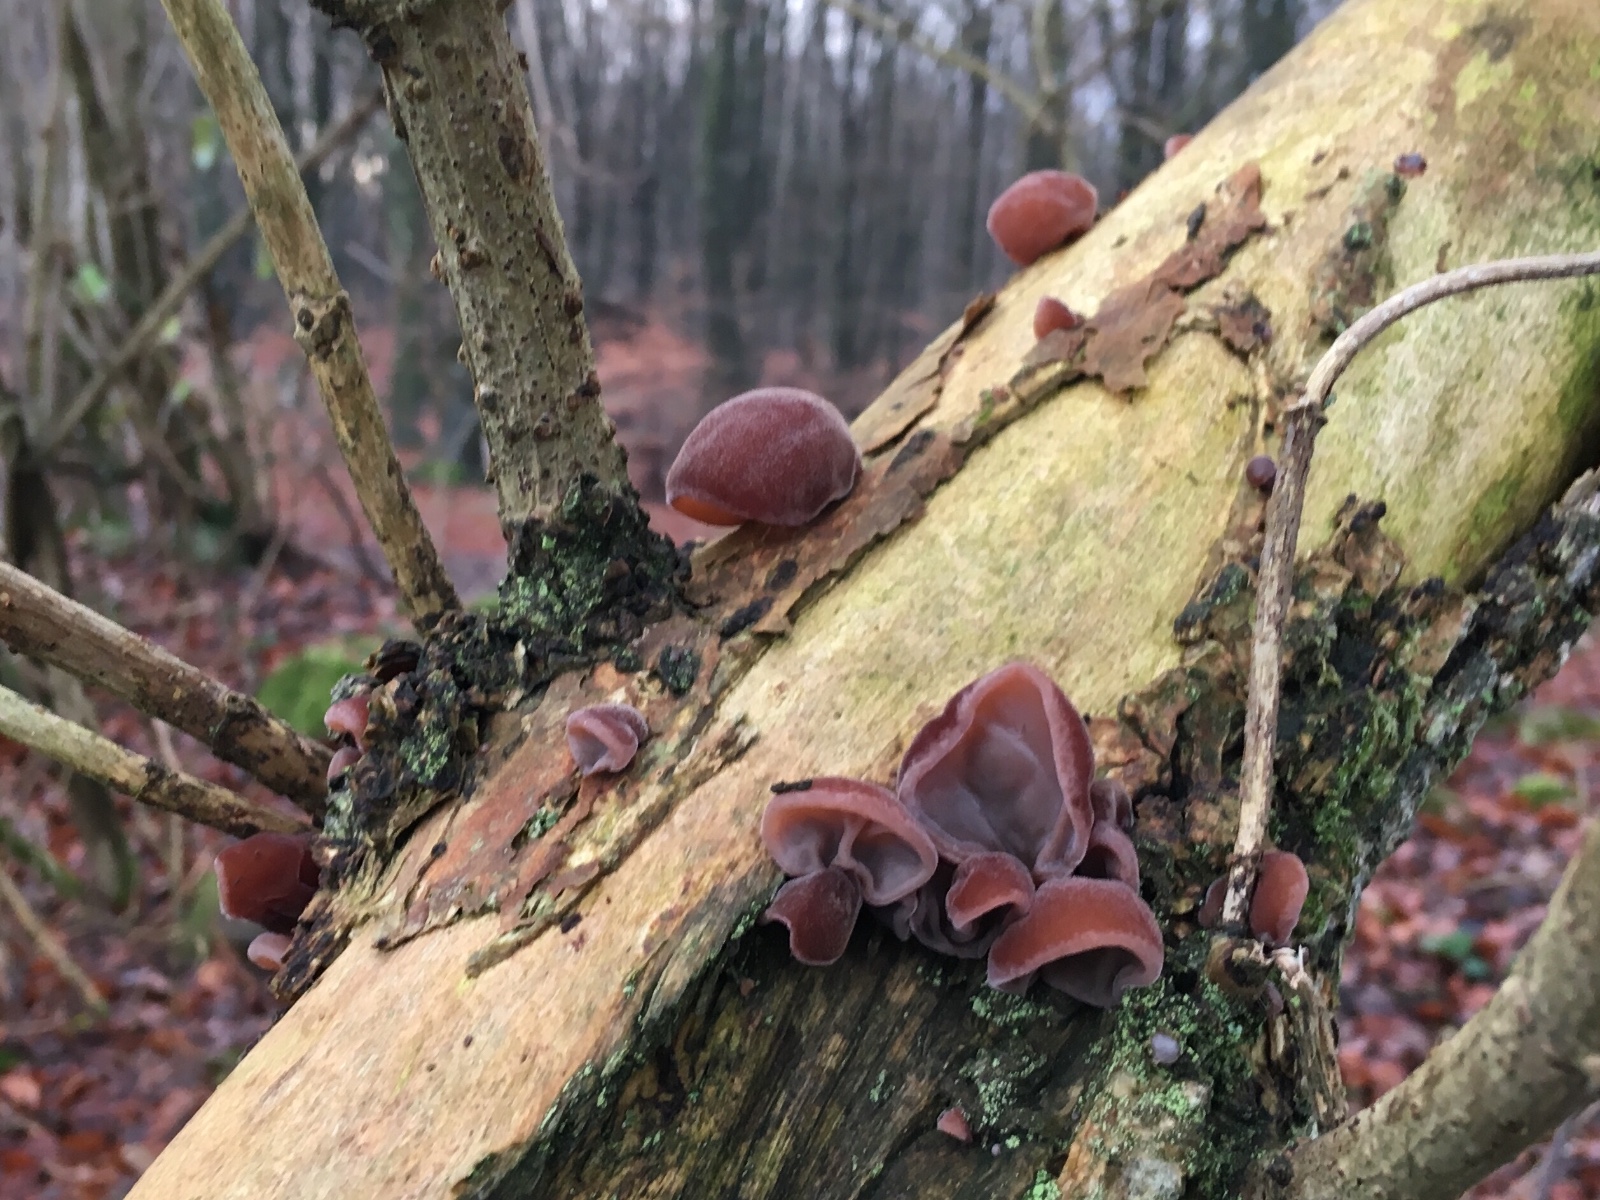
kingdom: Fungi
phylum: Basidiomycota
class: Agaricomycetes
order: Auriculariales
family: Auriculariaceae
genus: Auricularia
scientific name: Auricularia auricula-judae
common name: almindelig judasøre
